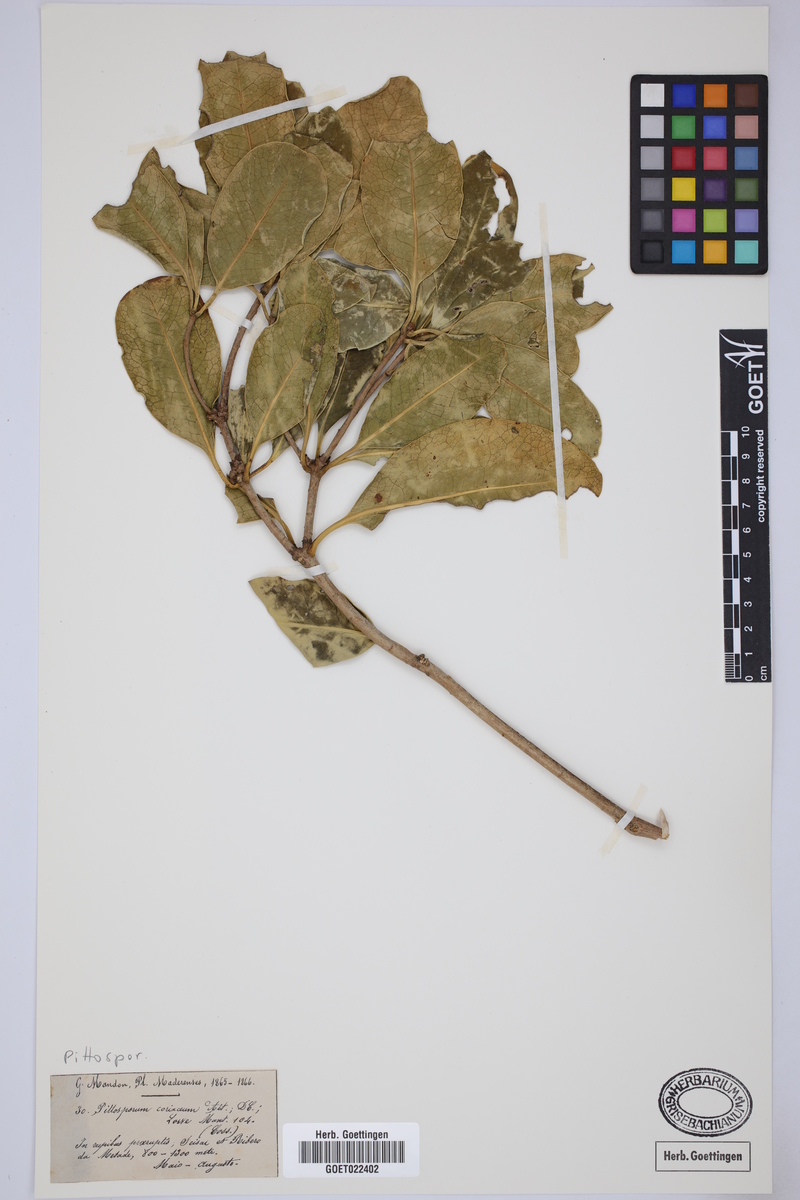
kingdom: Plantae
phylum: Tracheophyta
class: Magnoliopsida
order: Apiales
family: Pittosporaceae
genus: Pittosporum
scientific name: Pittosporum coriaceum
